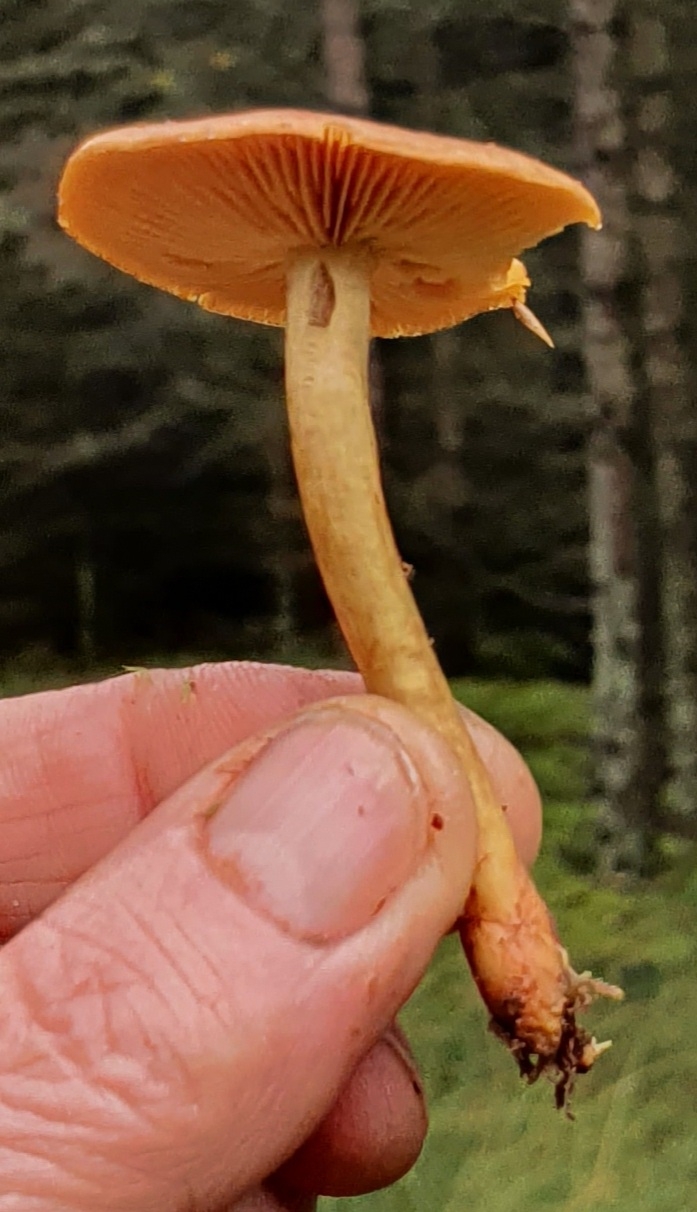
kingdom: Fungi
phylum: Basidiomycota
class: Agaricomycetes
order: Agaricales
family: Cortinariaceae
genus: Cortinarius
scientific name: Cortinarius
